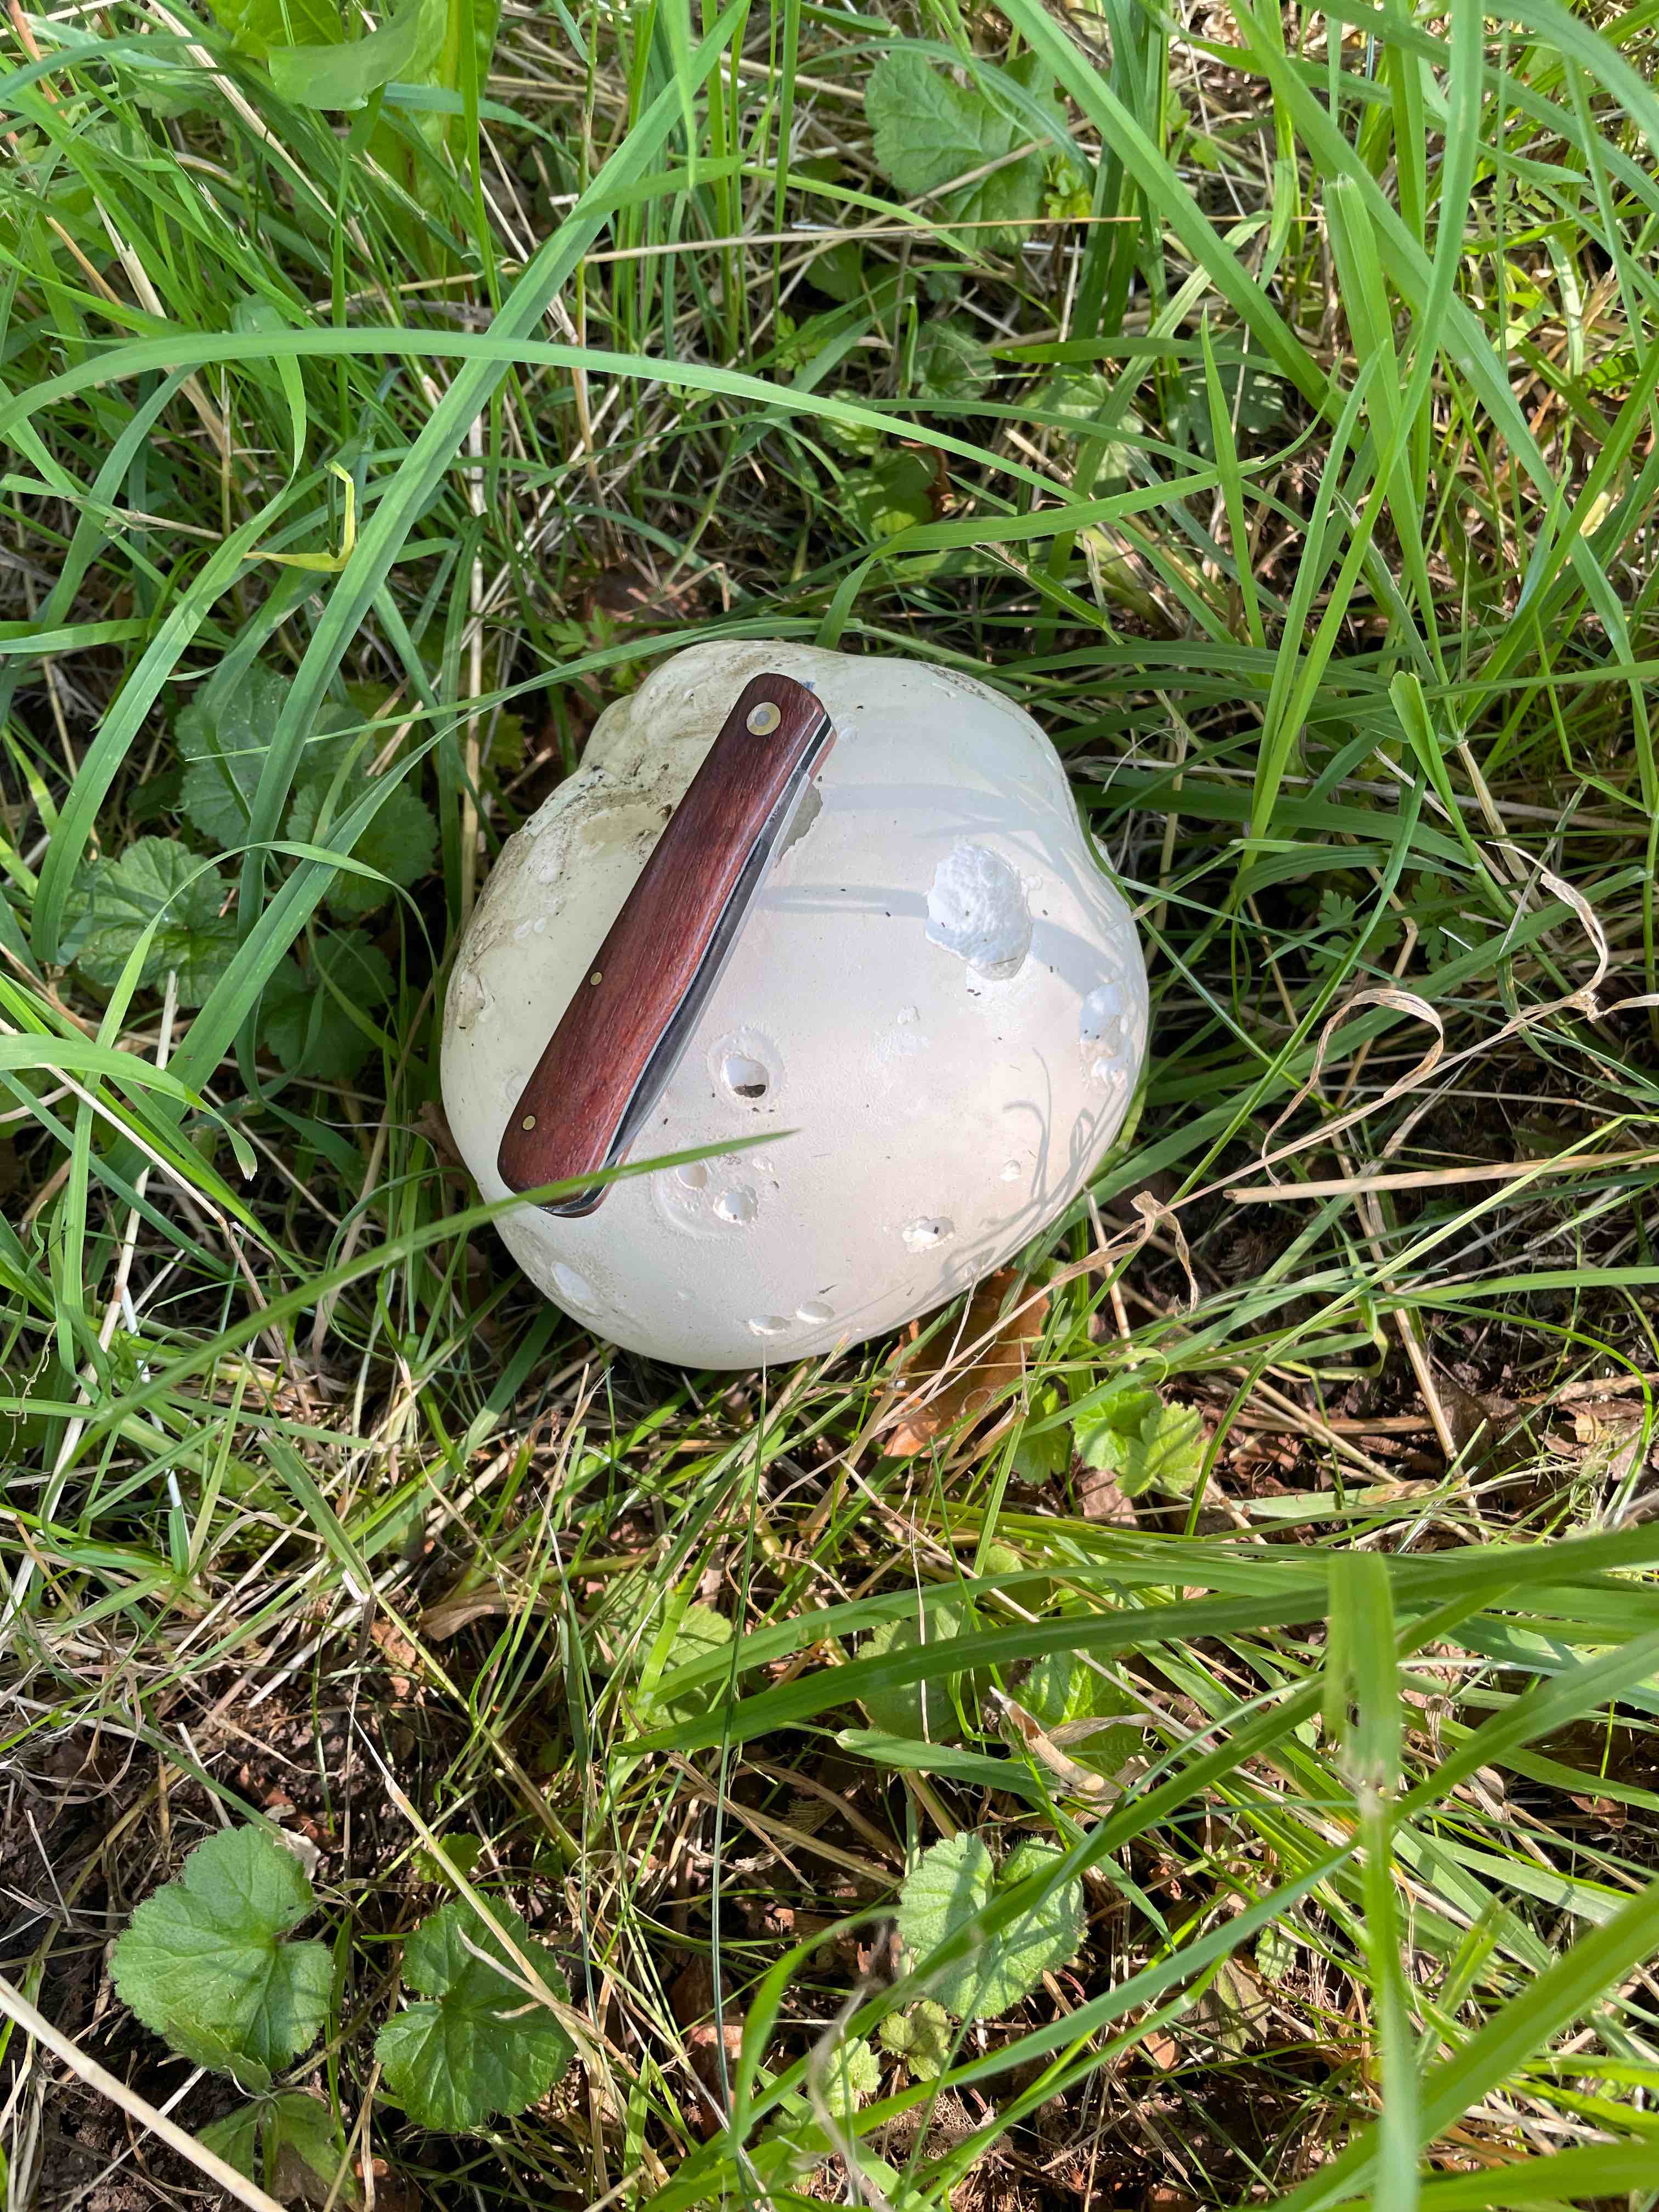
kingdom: Fungi
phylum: Basidiomycota
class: Agaricomycetes
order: Agaricales
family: Lycoperdaceae
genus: Calvatia
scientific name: Calvatia gigantea
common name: kæmpestøvbold
